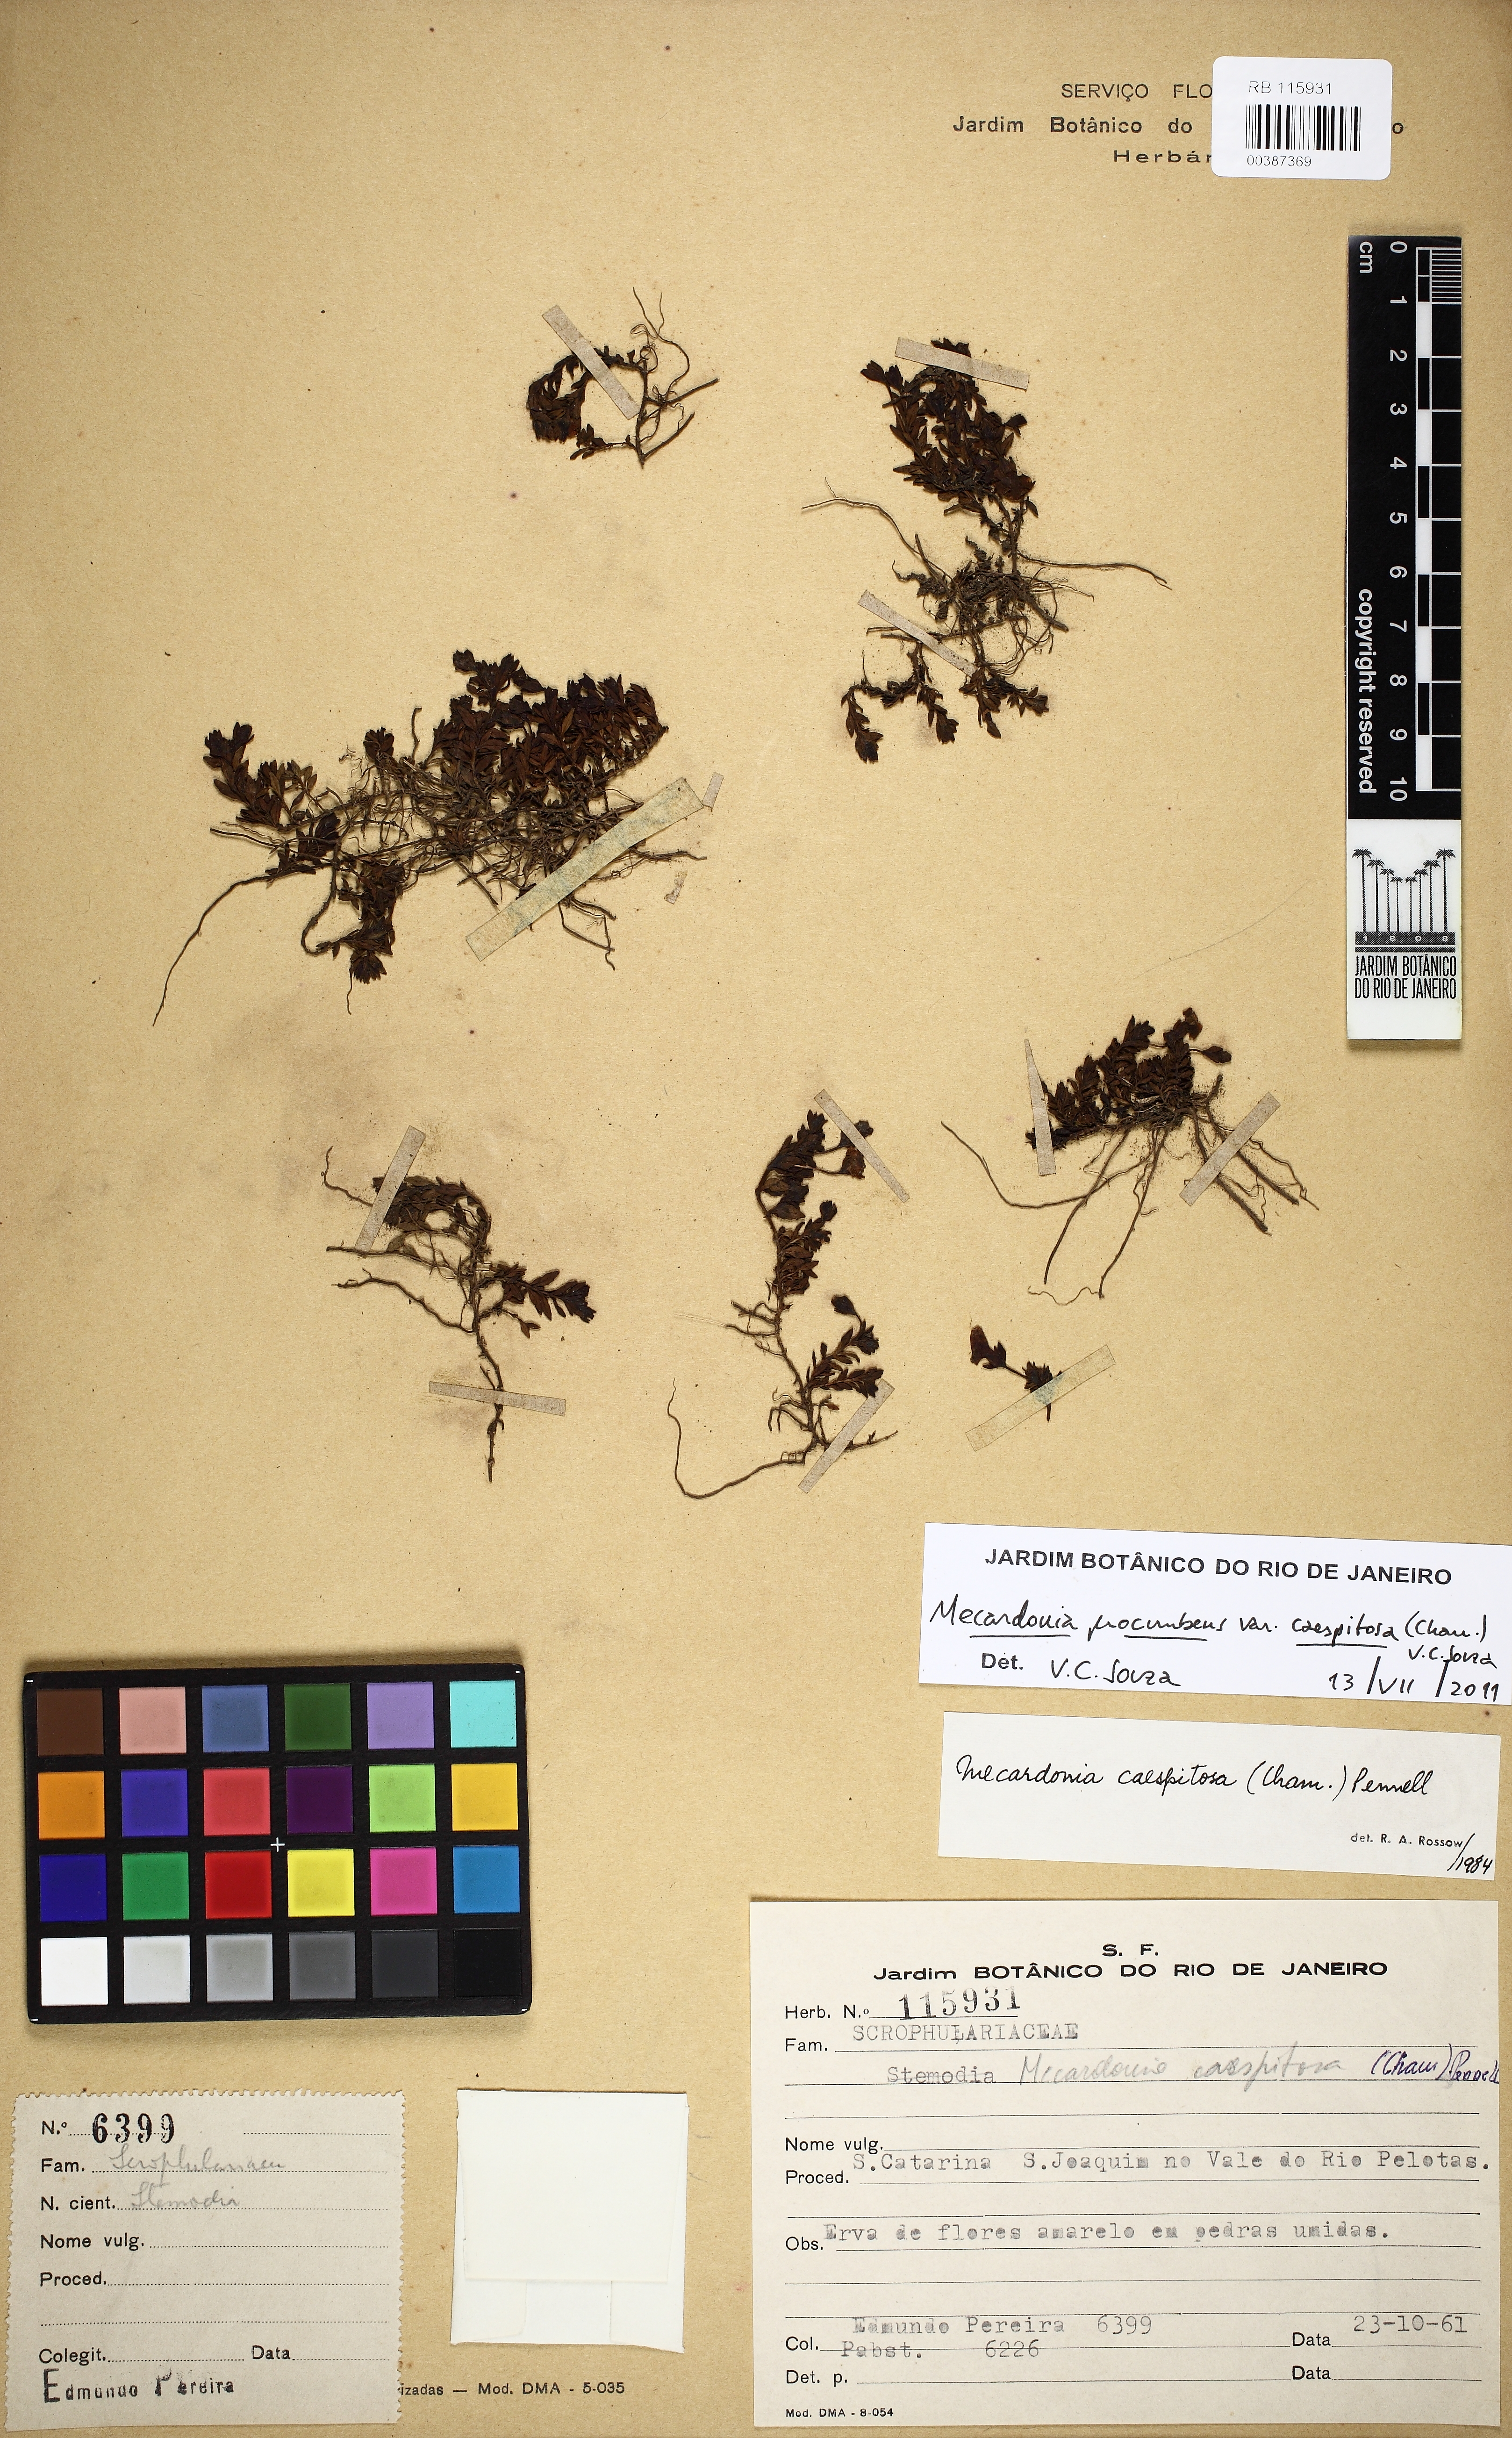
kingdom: Plantae
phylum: Tracheophyta
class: Magnoliopsida
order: Lamiales
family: Plantaginaceae
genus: Mecardonia
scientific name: Mecardonia procumbens
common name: Baby jump-up
